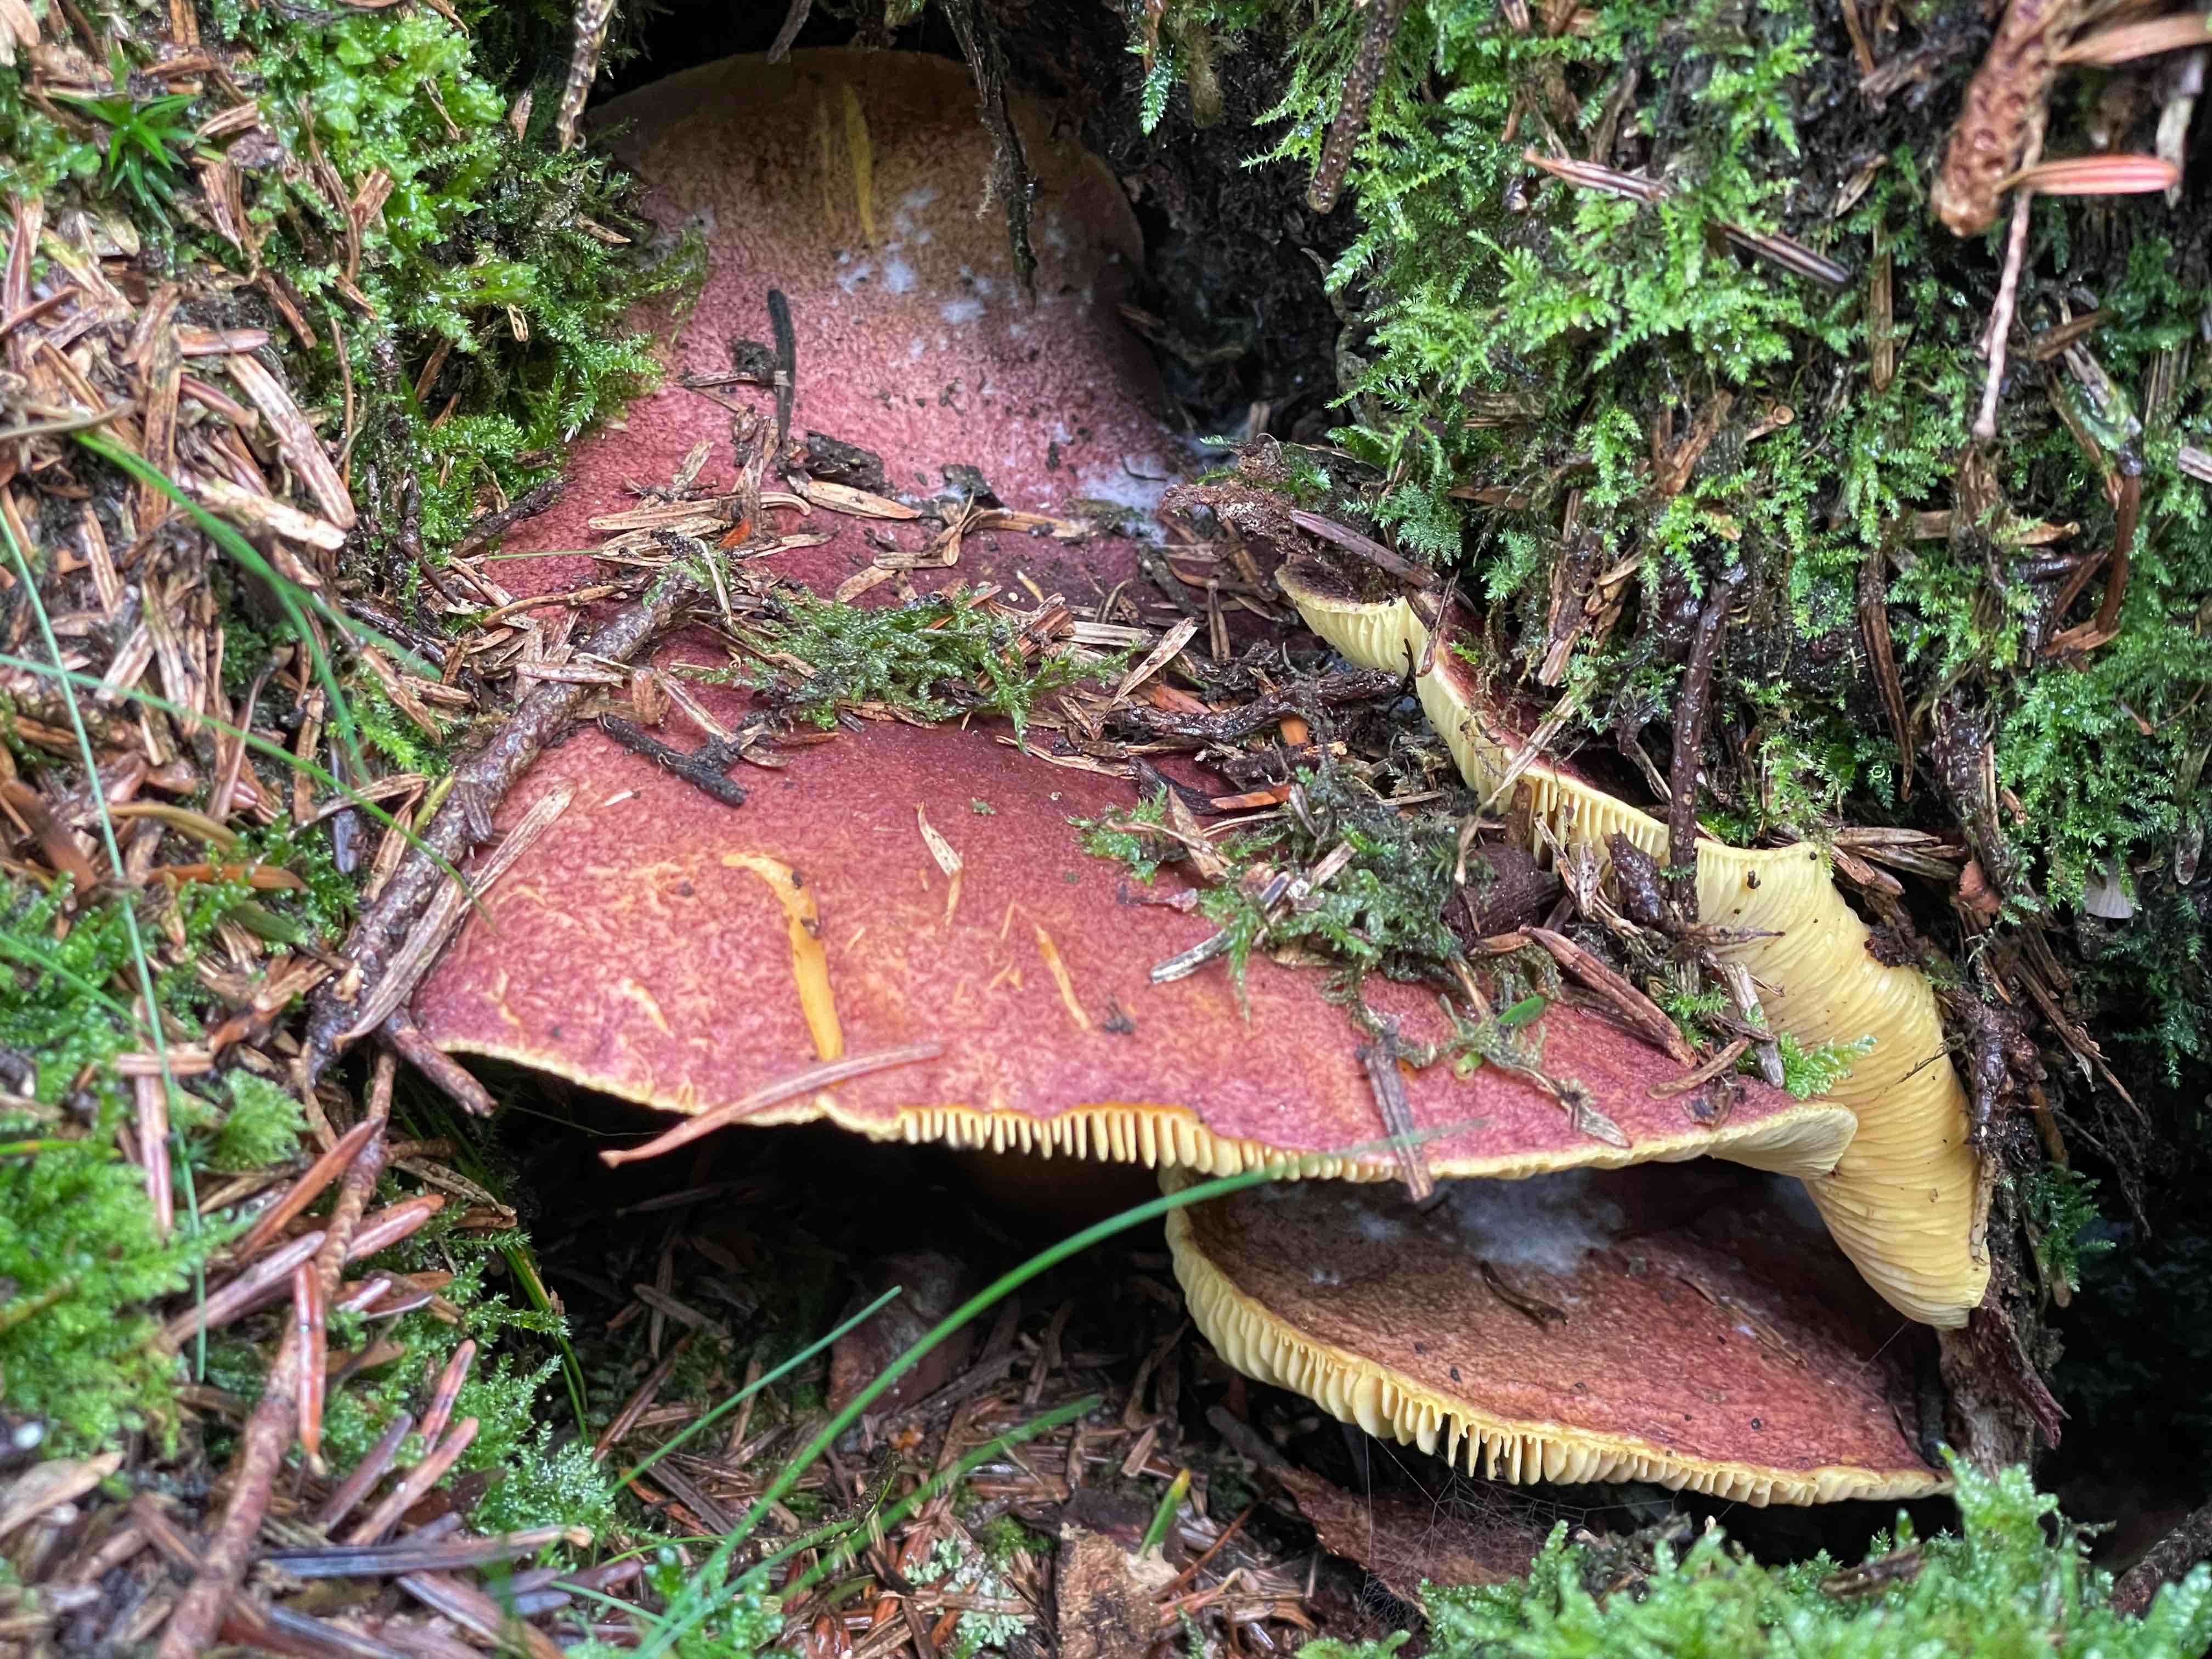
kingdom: Fungi
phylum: Basidiomycota
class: Agaricomycetes
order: Agaricales
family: Tricholomataceae
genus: Tricholomopsis
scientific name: Tricholomopsis rutilans
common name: purpur-væbnerhat
